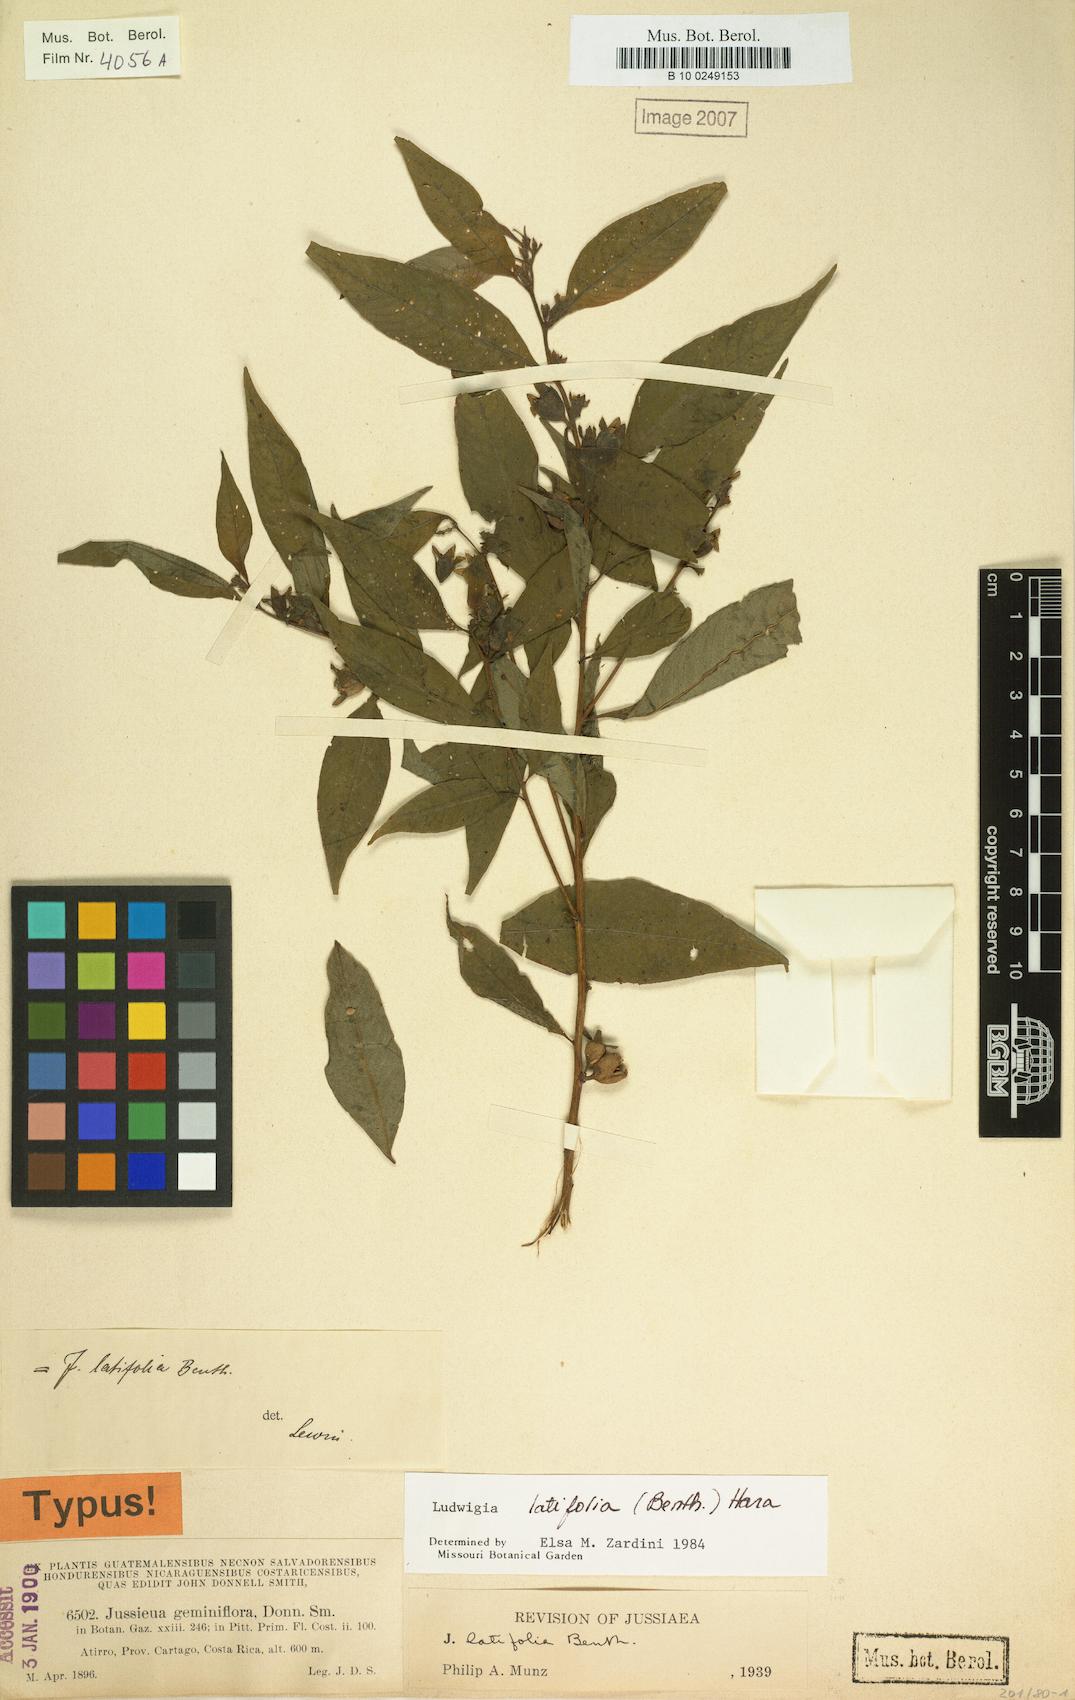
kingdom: Plantae
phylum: Tracheophyta
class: Magnoliopsida
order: Myrtales
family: Onagraceae
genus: Ludwigia
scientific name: Ludwigia latifolia
